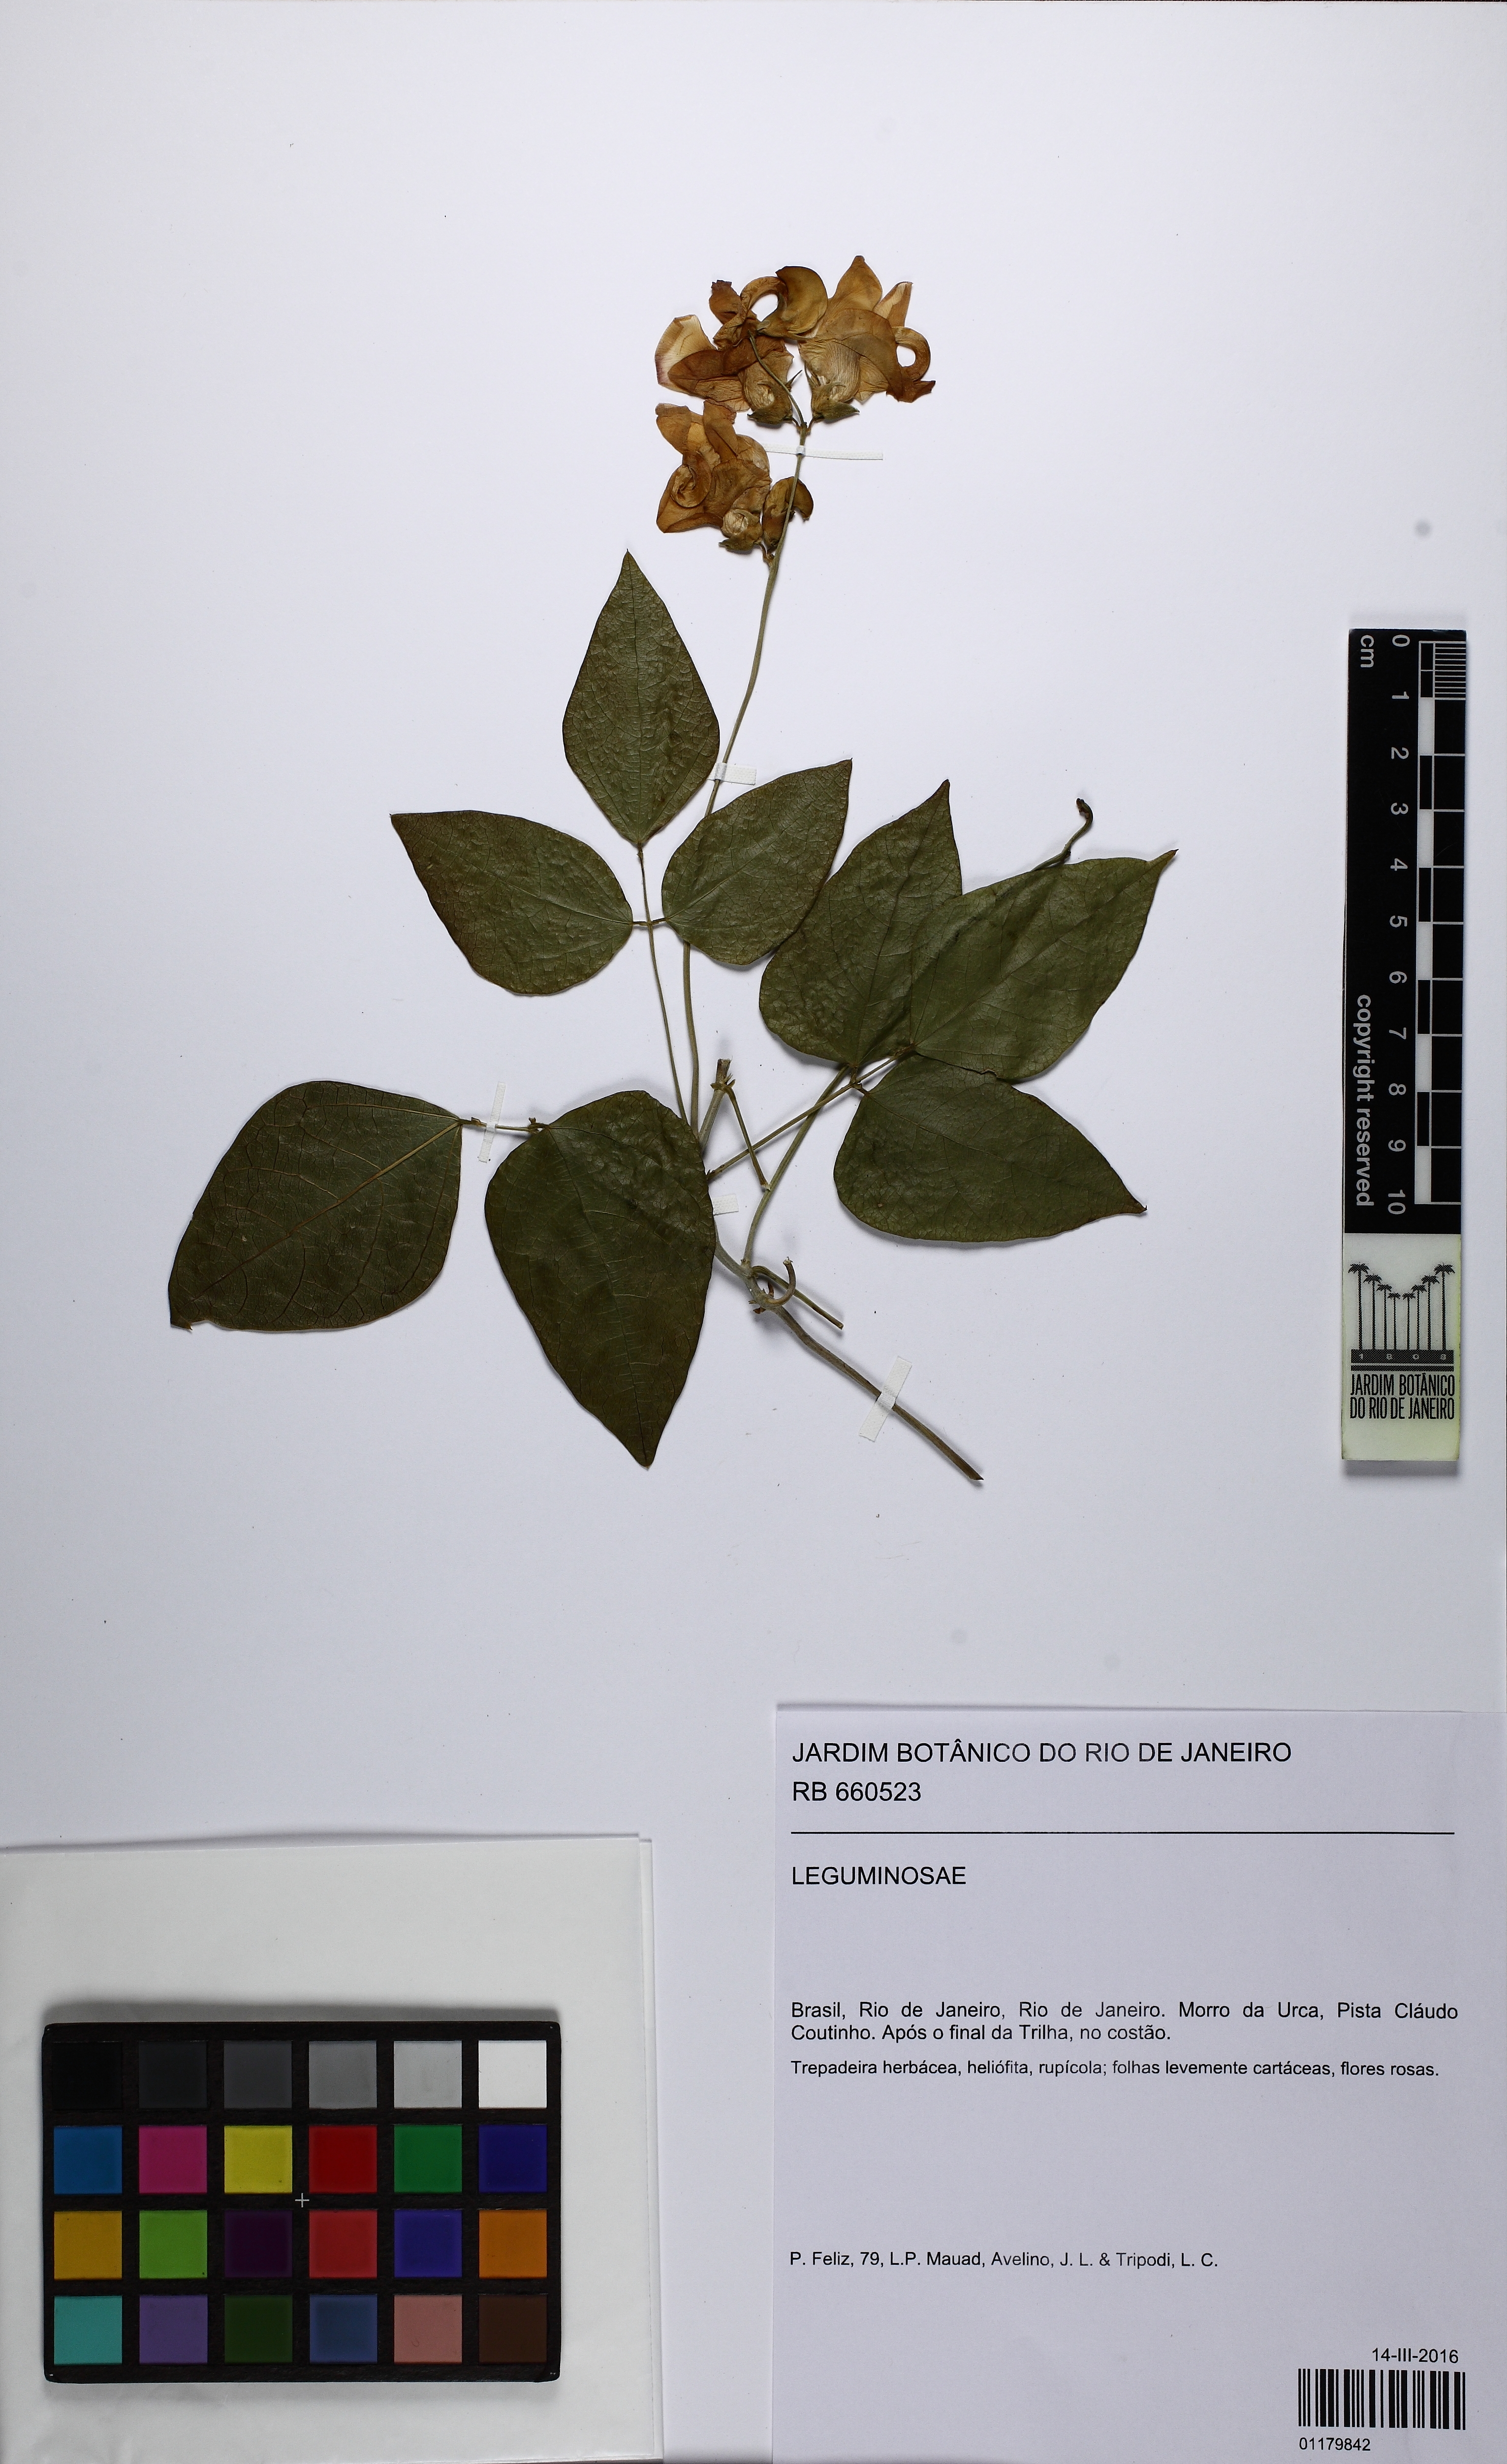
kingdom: Plantae
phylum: Tracheophyta
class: Magnoliopsida
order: Fabales
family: Fabaceae
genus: Sigmoidotropis
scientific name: Sigmoidotropis speciosa
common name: Snail flower
